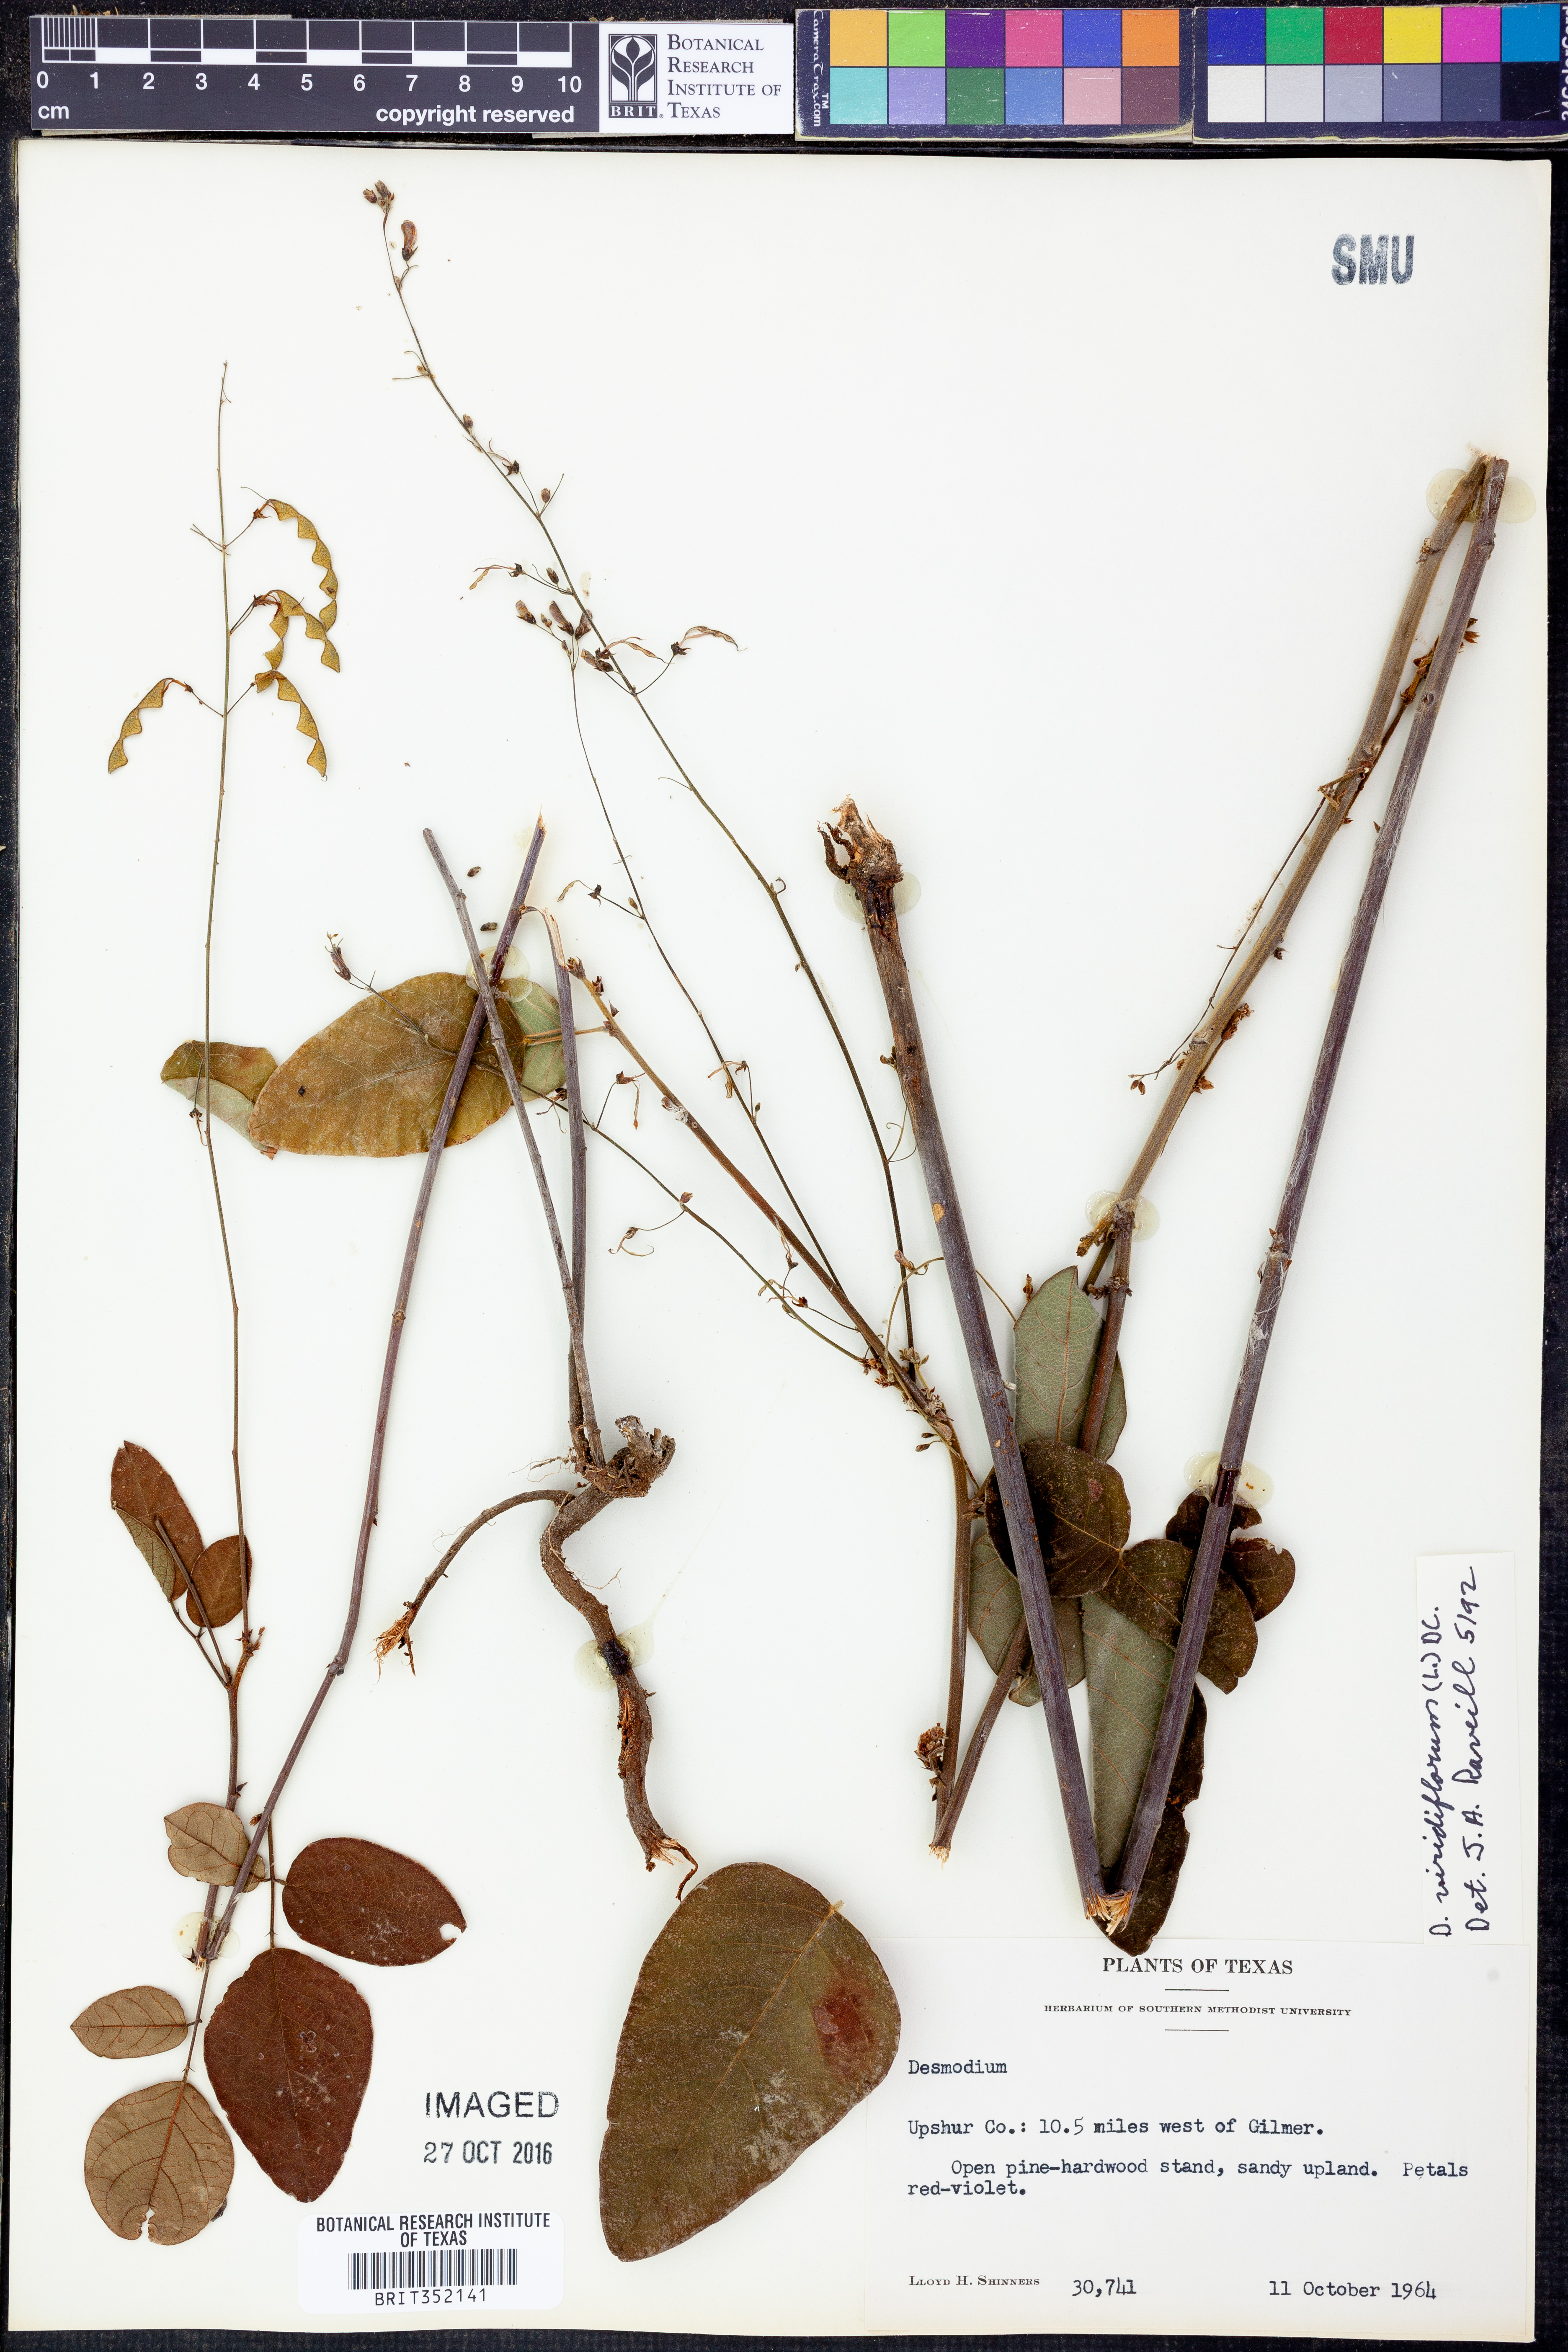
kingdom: Plantae
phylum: Tracheophyta
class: Magnoliopsida
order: Fabales
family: Fabaceae
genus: Desmodium
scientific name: Desmodium viridiflorum
